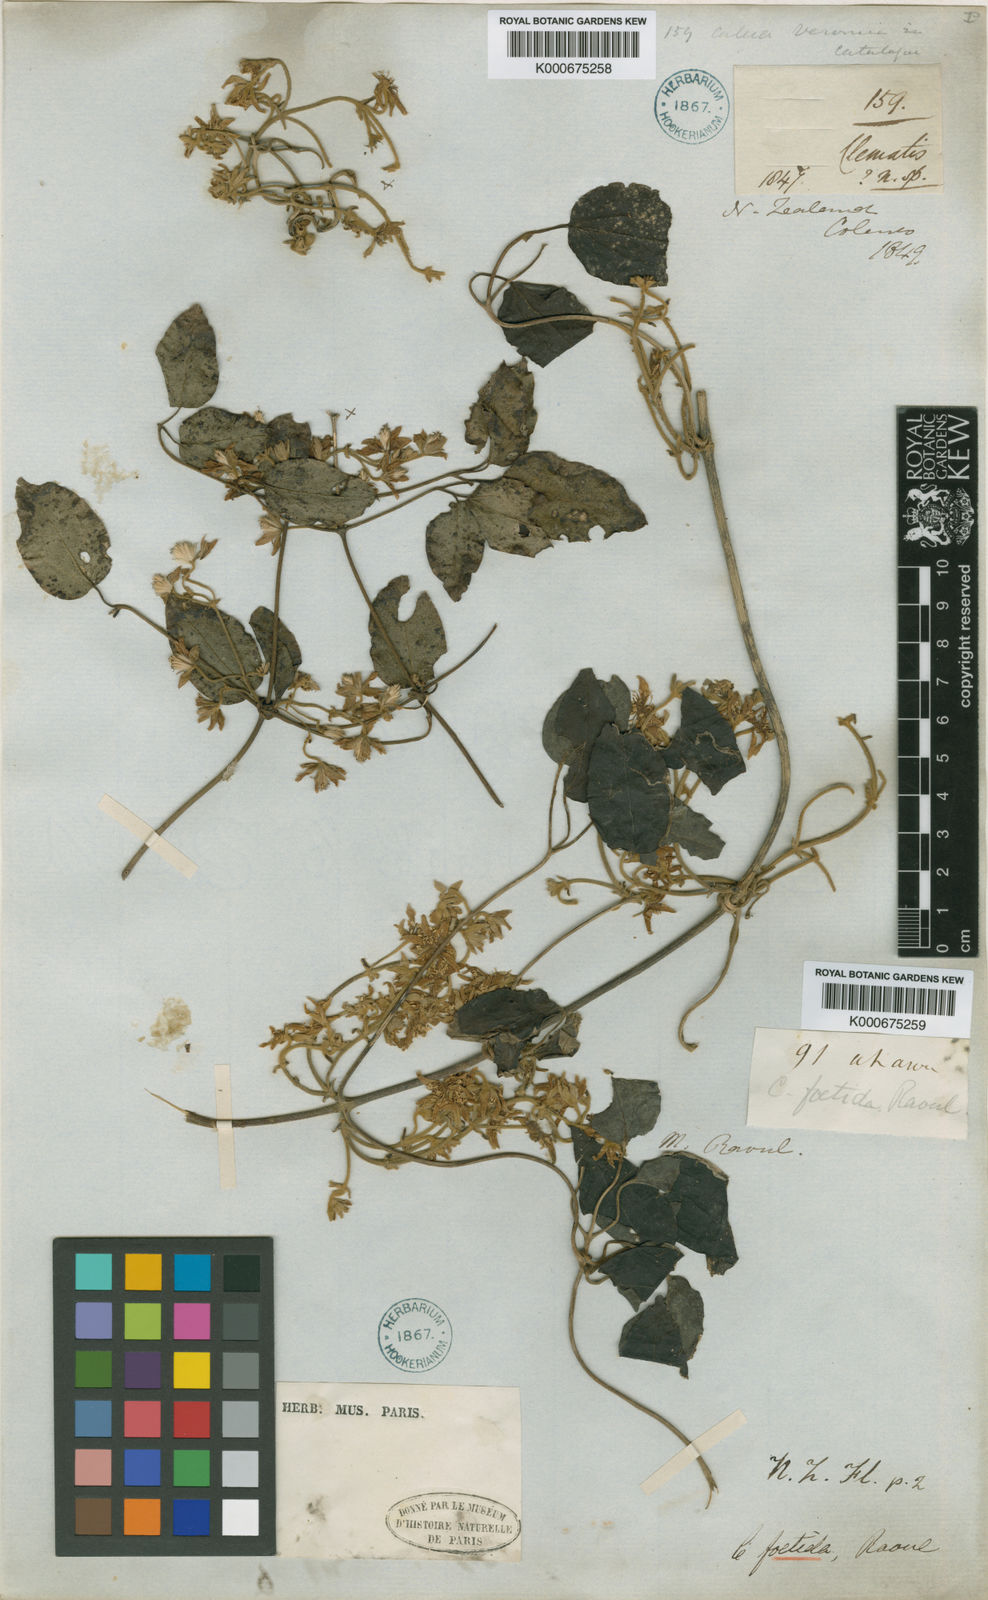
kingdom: Plantae
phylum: Tracheophyta
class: Magnoliopsida
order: Ranunculales
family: Ranunculaceae
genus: Clematis
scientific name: Clematis foetida
